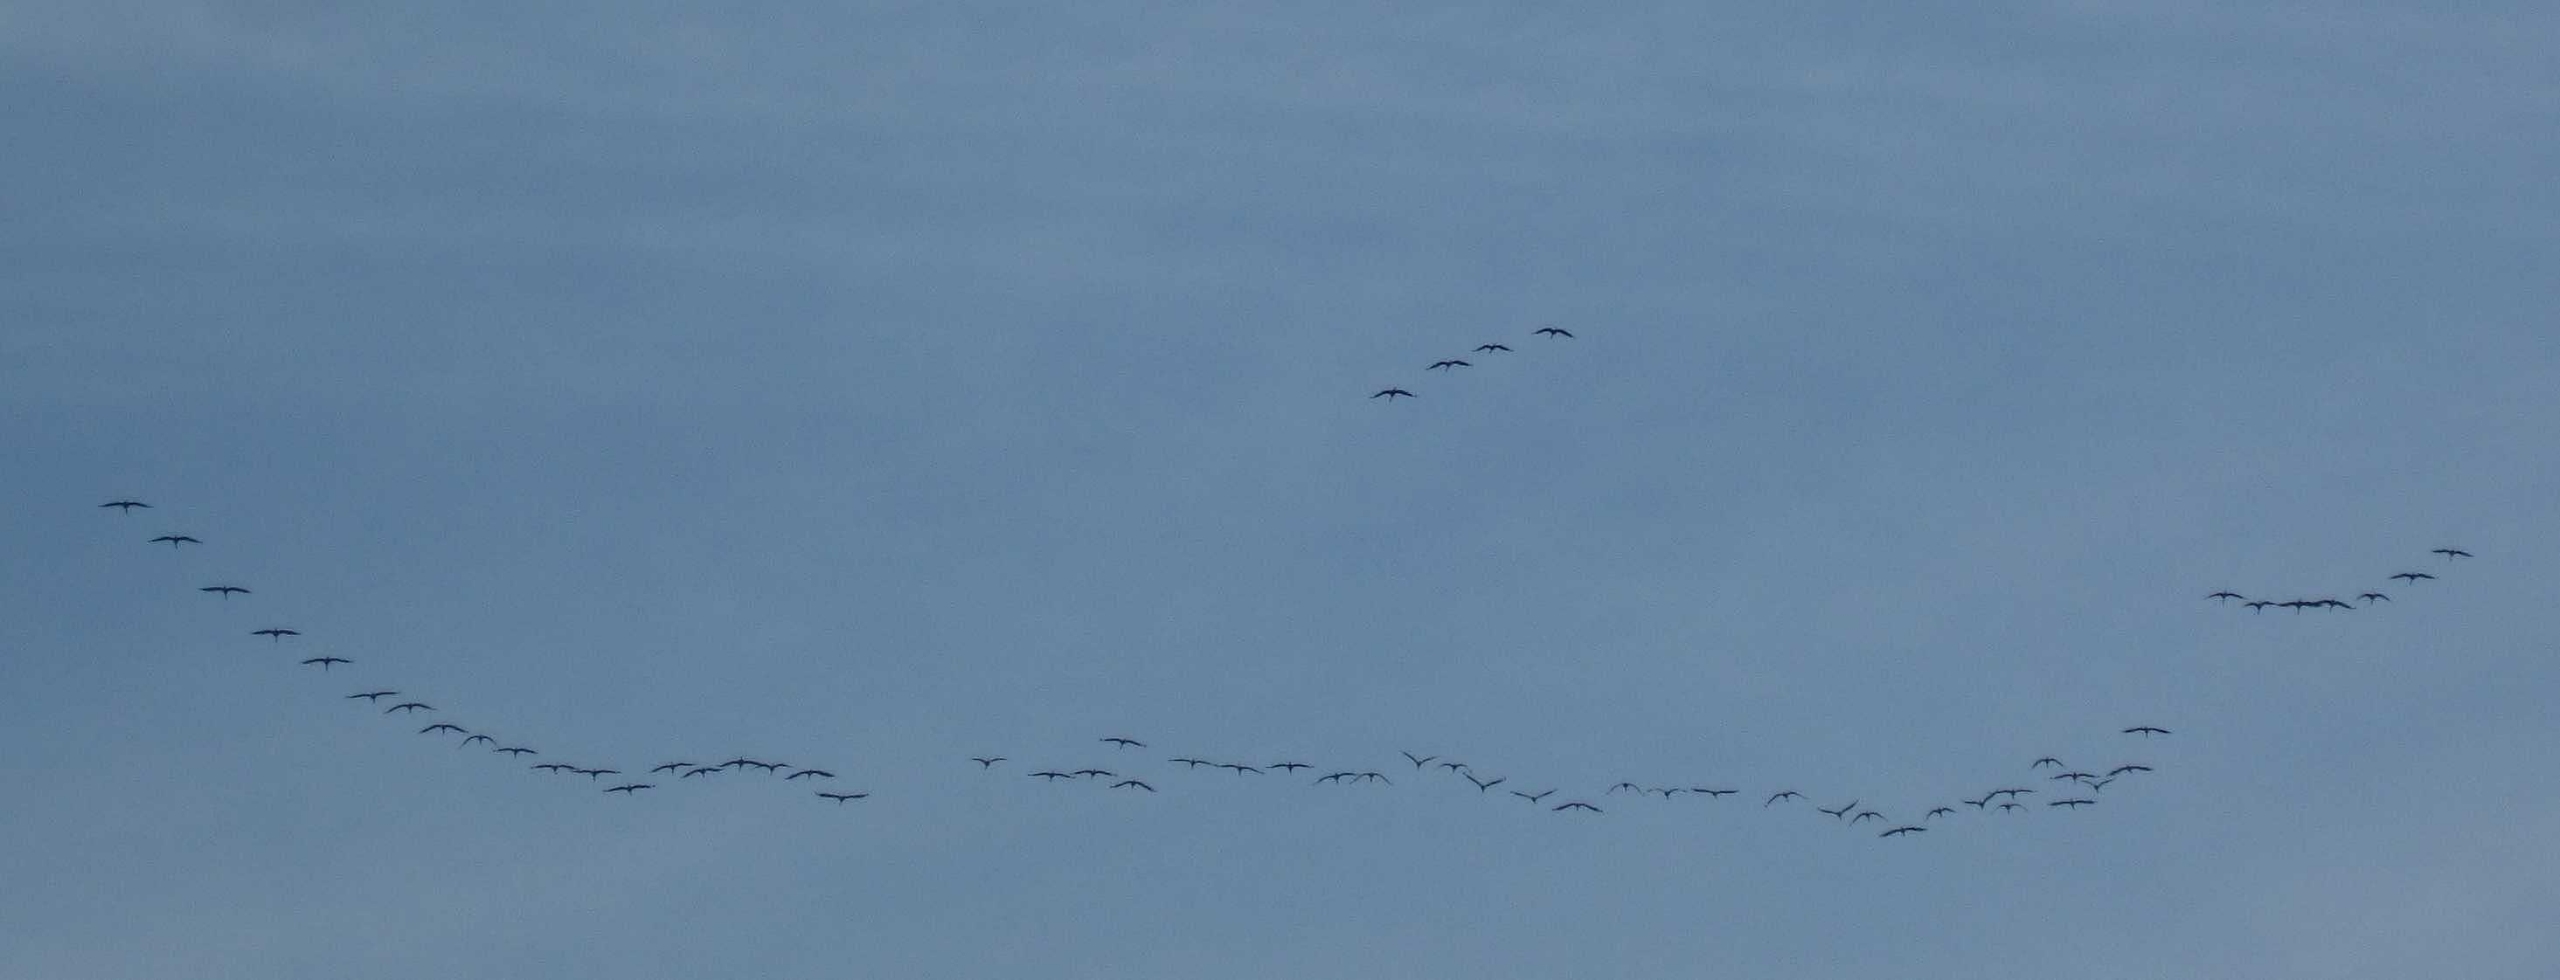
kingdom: Animalia
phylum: Chordata
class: Aves
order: Gruiformes
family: Gruidae
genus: Grus
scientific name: Grus grus
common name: Trane
